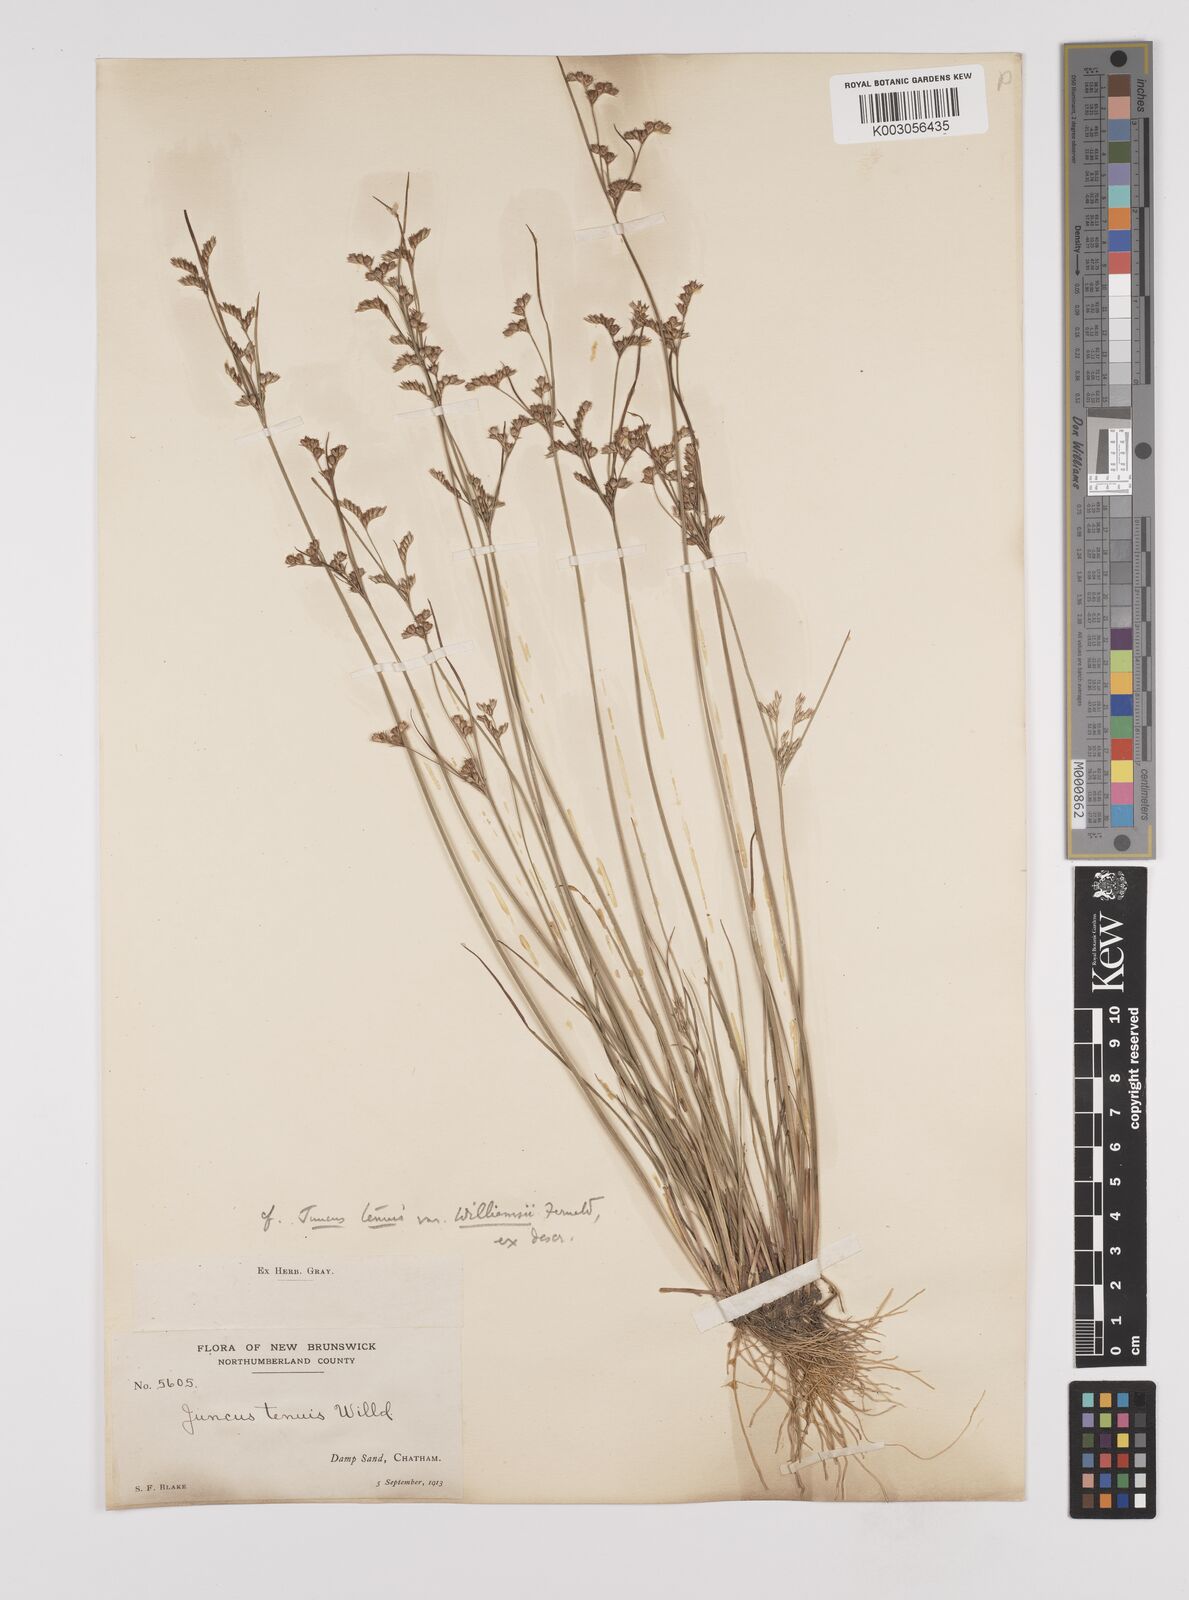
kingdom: Plantae
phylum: Tracheophyta
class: Liliopsida
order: Poales
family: Juncaceae
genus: Juncus
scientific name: Juncus tenuis
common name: Slender rush
